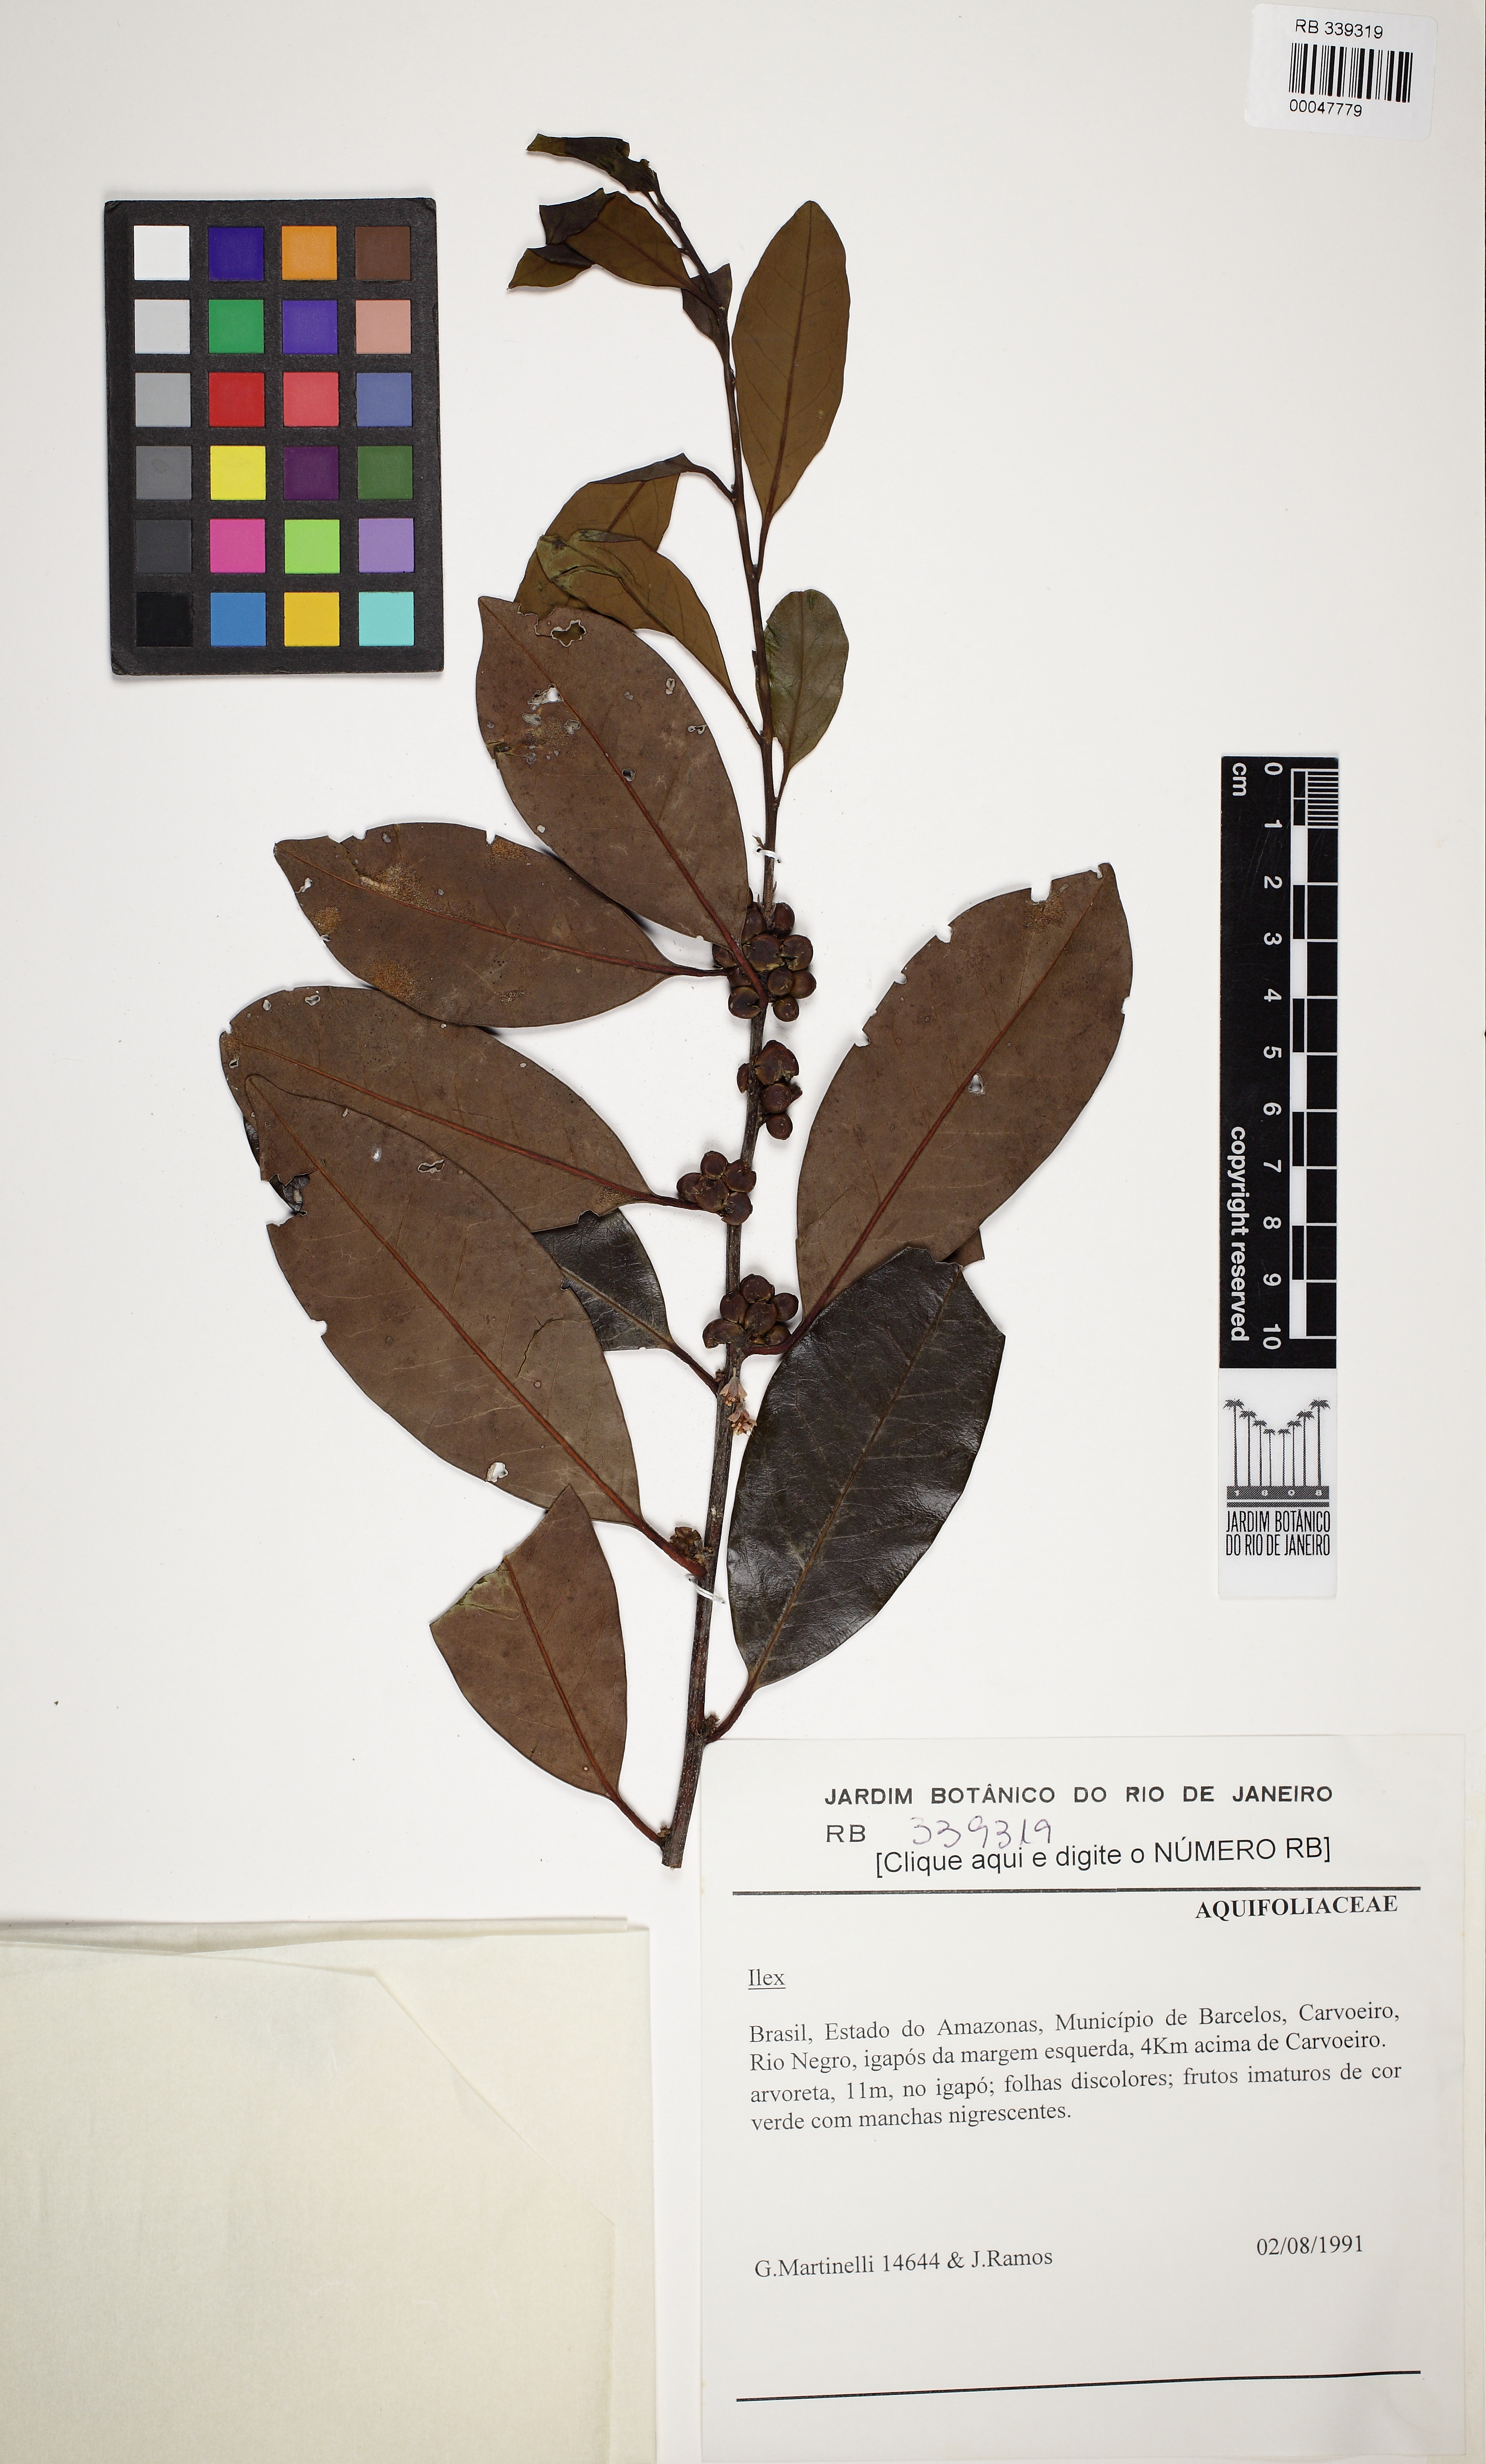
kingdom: Plantae
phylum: Tracheophyta
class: Magnoliopsida
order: Aquifoliales
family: Aquifoliaceae
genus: Ilex
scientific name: Ilex
